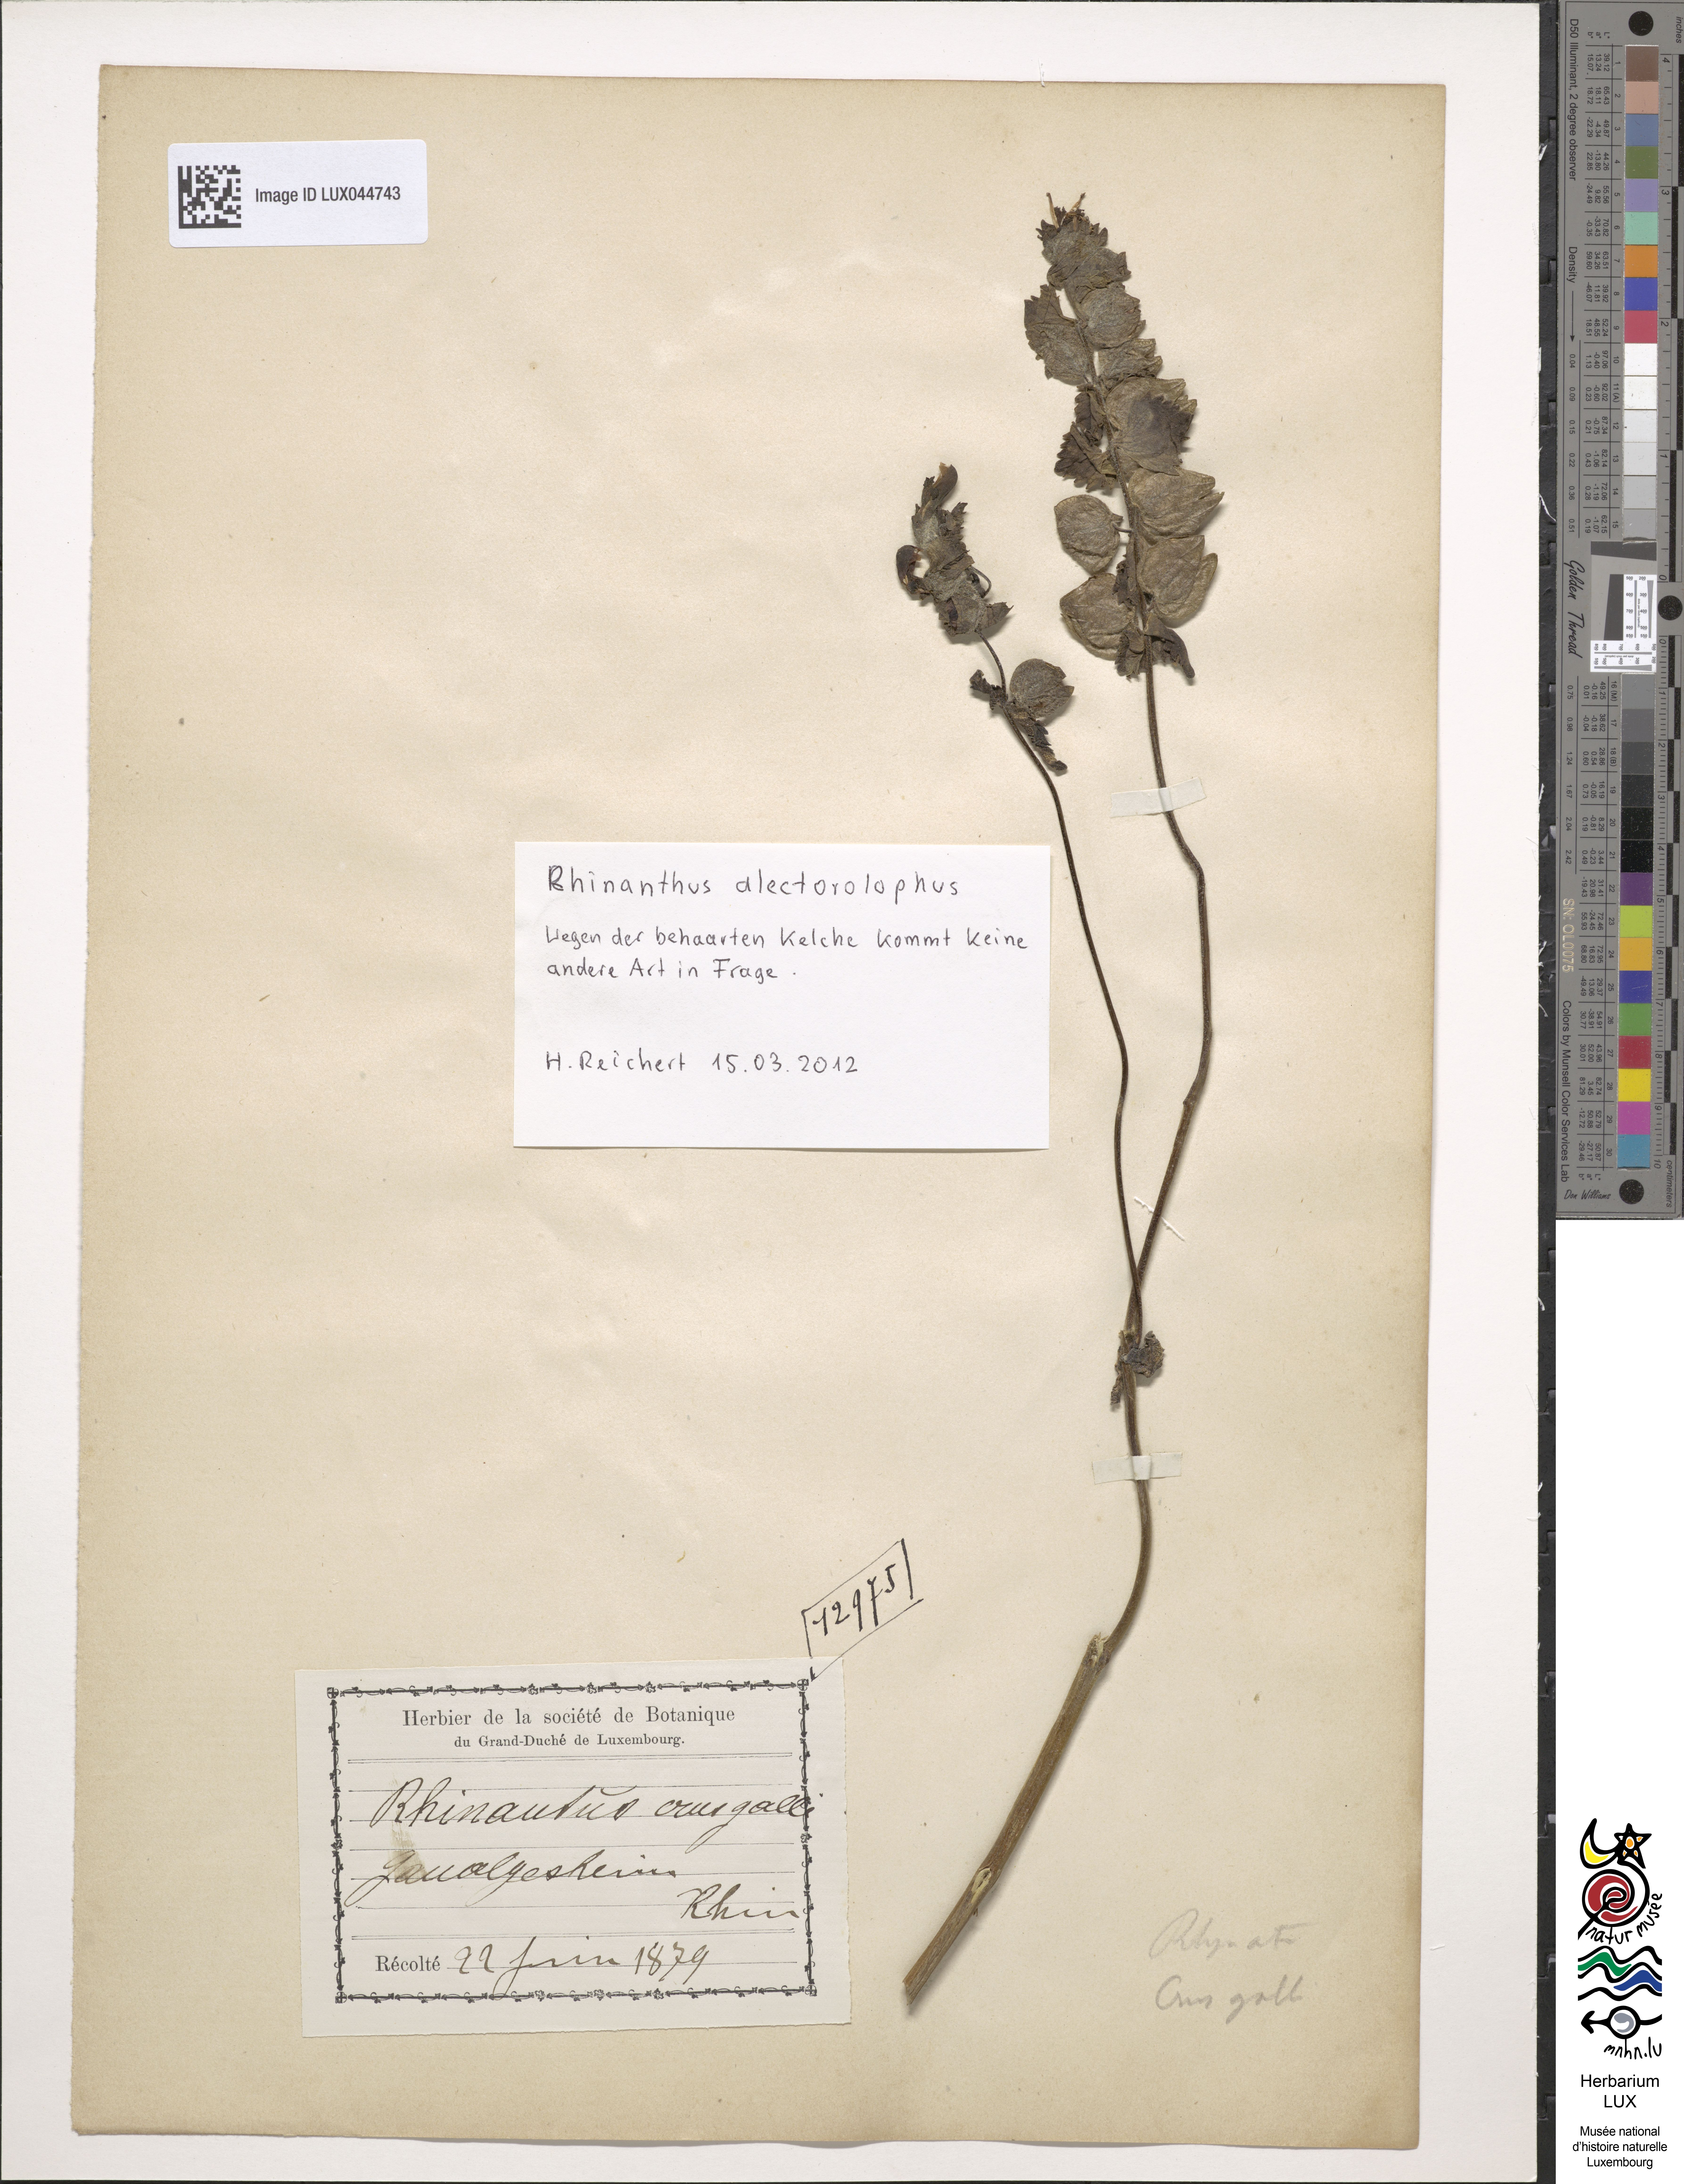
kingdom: Plantae
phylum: Tracheophyta
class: Magnoliopsida
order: Lamiales
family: Orobanchaceae
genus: Rhinanthus
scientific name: Rhinanthus alectorolophus
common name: Greater yellow-rattle
